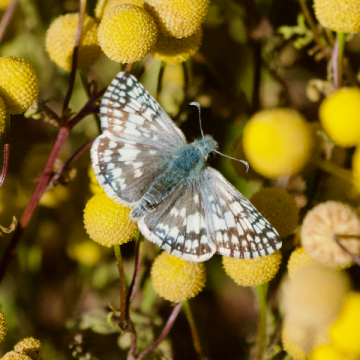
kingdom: Animalia
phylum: Arthropoda
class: Insecta
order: Lepidoptera
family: Hesperiidae
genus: Pyrgus
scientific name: Pyrgus
